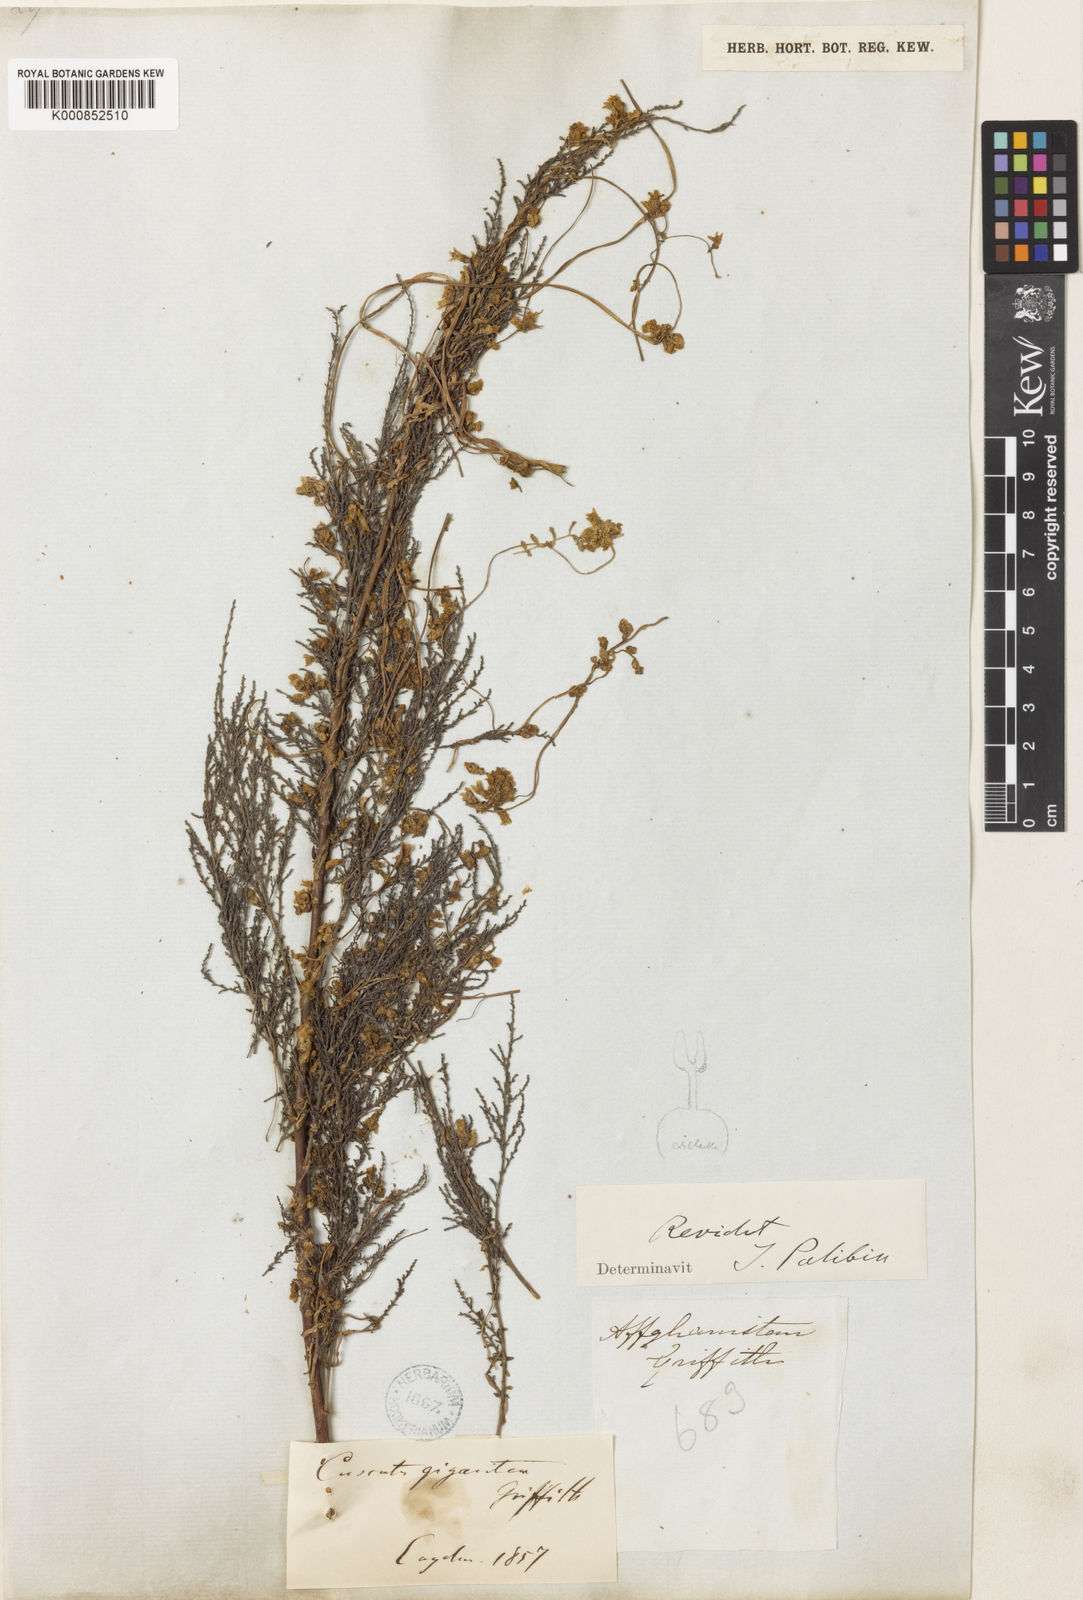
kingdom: Plantae
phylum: Tracheophyta
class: Magnoliopsida
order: Solanales
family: Convolvulaceae
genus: Cuscuta
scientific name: Cuscuta gigantea
